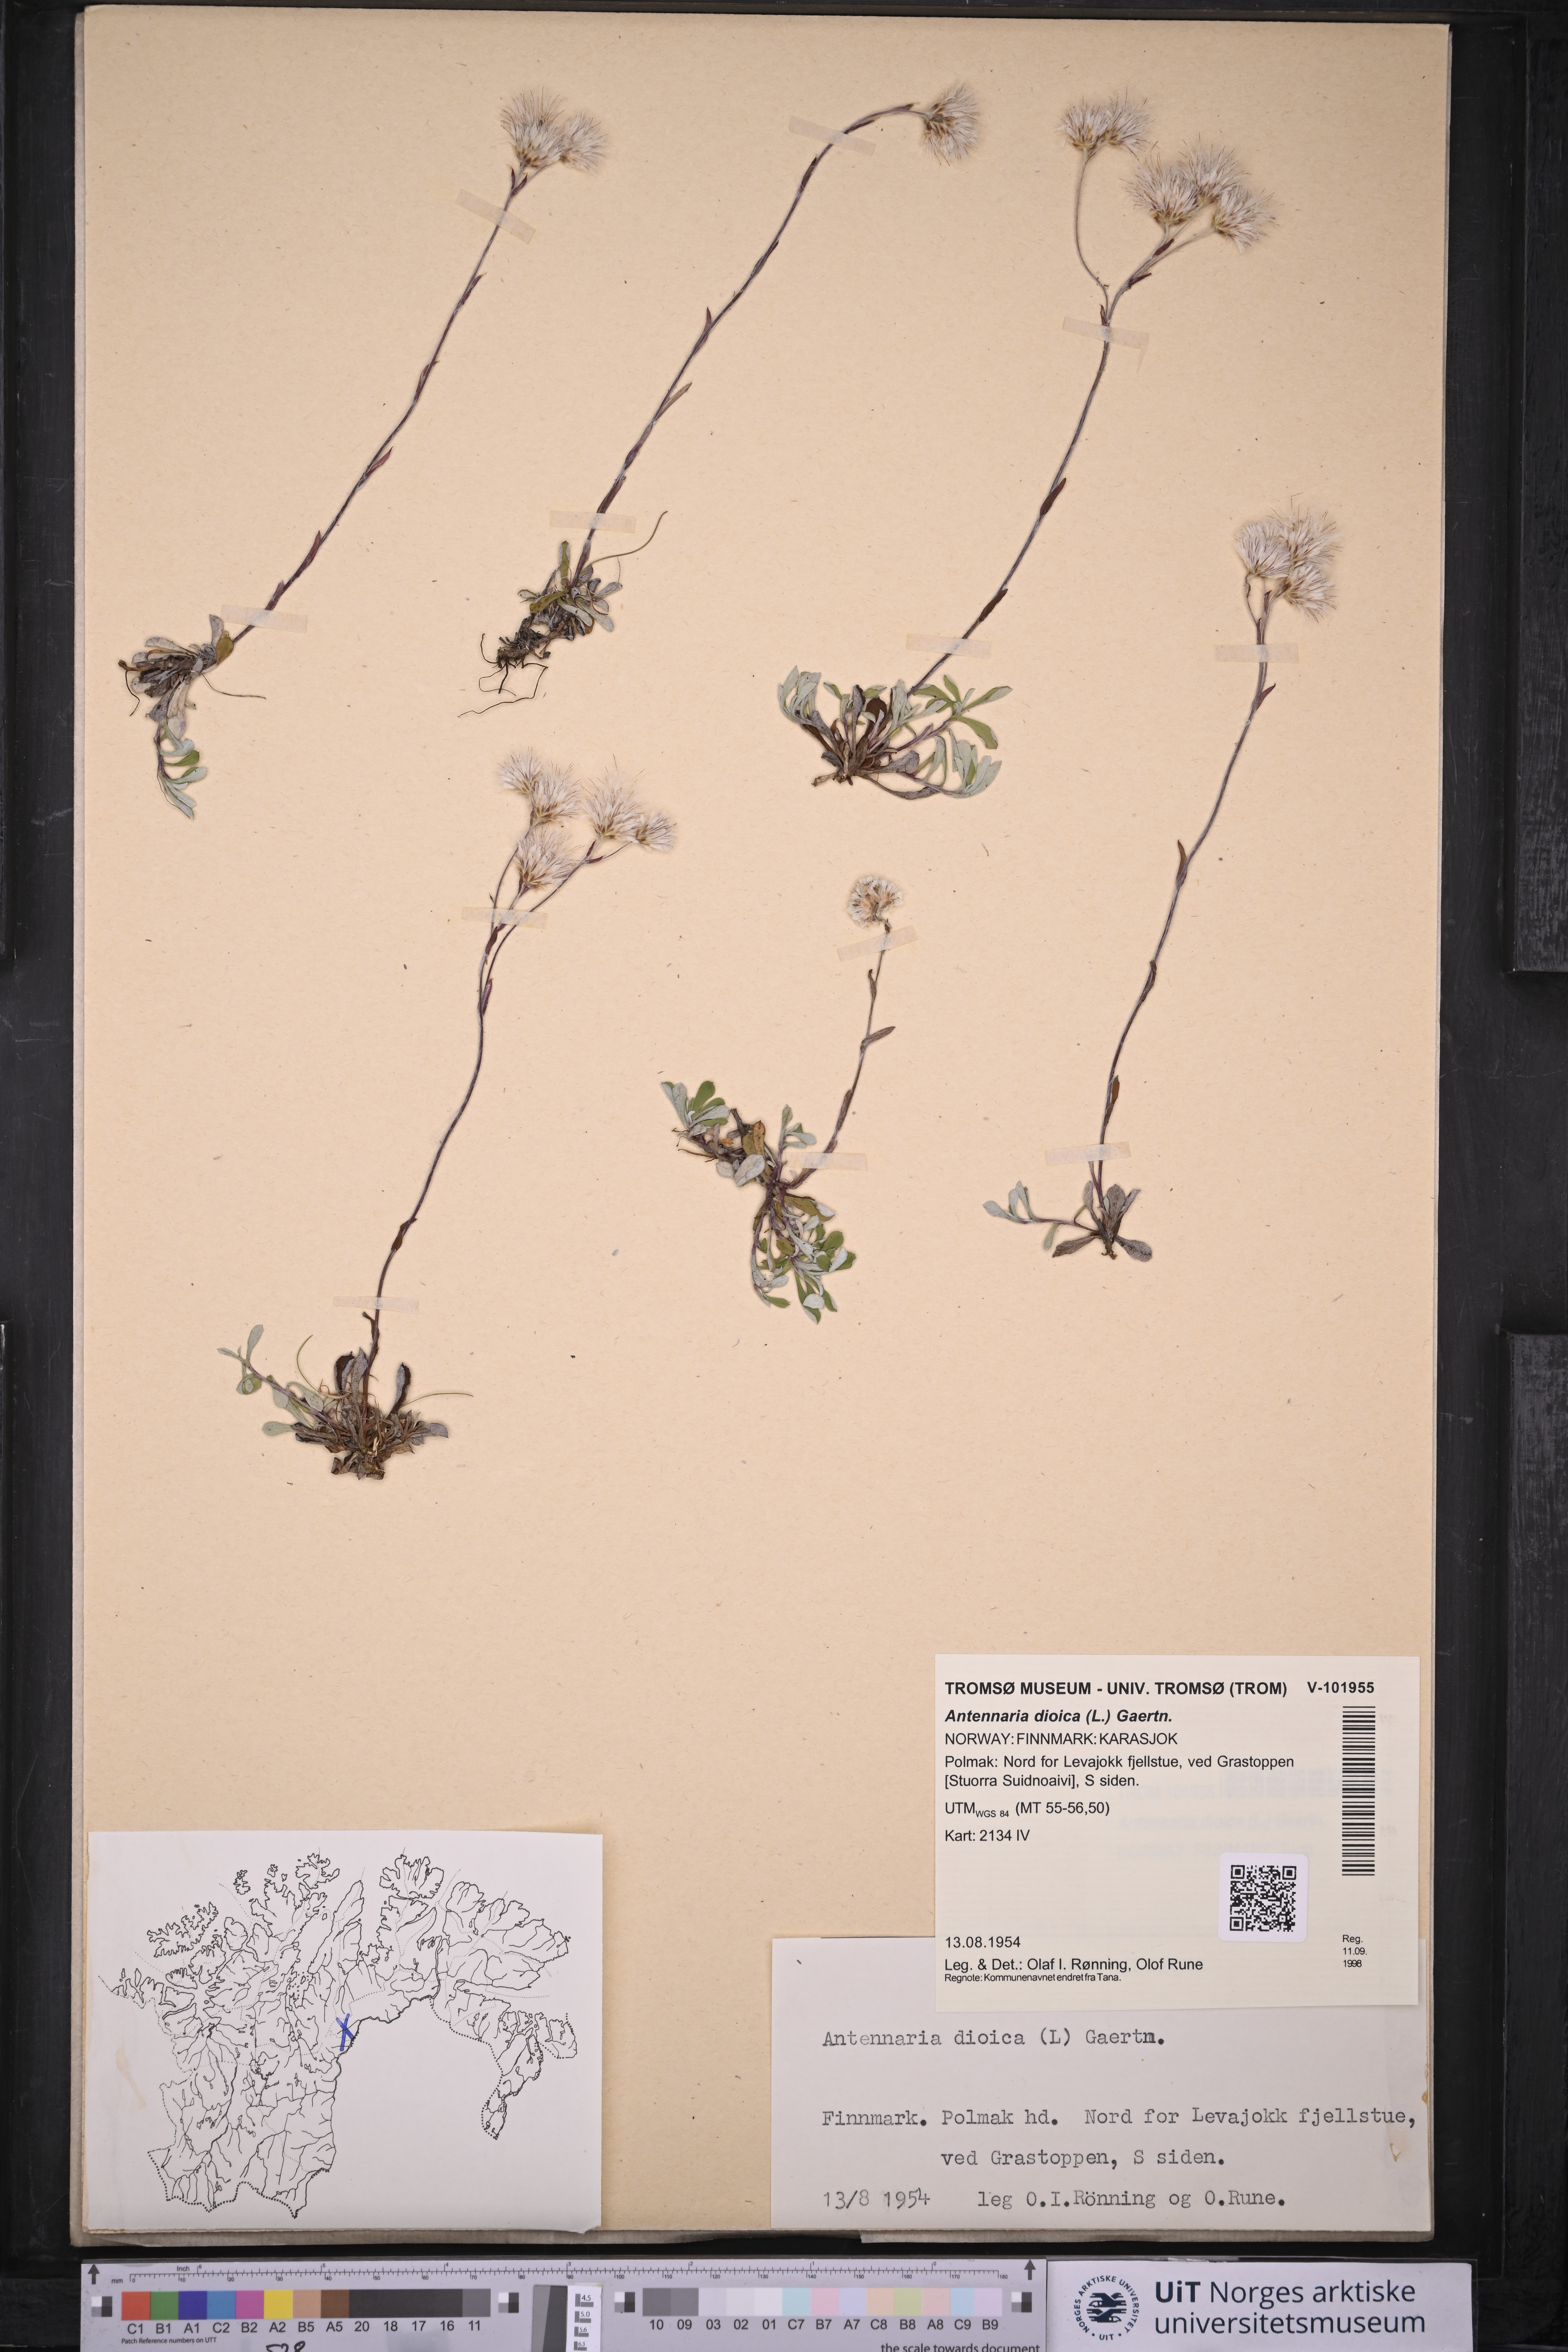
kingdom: Plantae
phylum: Tracheophyta
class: Magnoliopsida
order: Asterales
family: Asteraceae
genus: Antennaria
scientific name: Antennaria dioica
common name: Mountain everlasting
